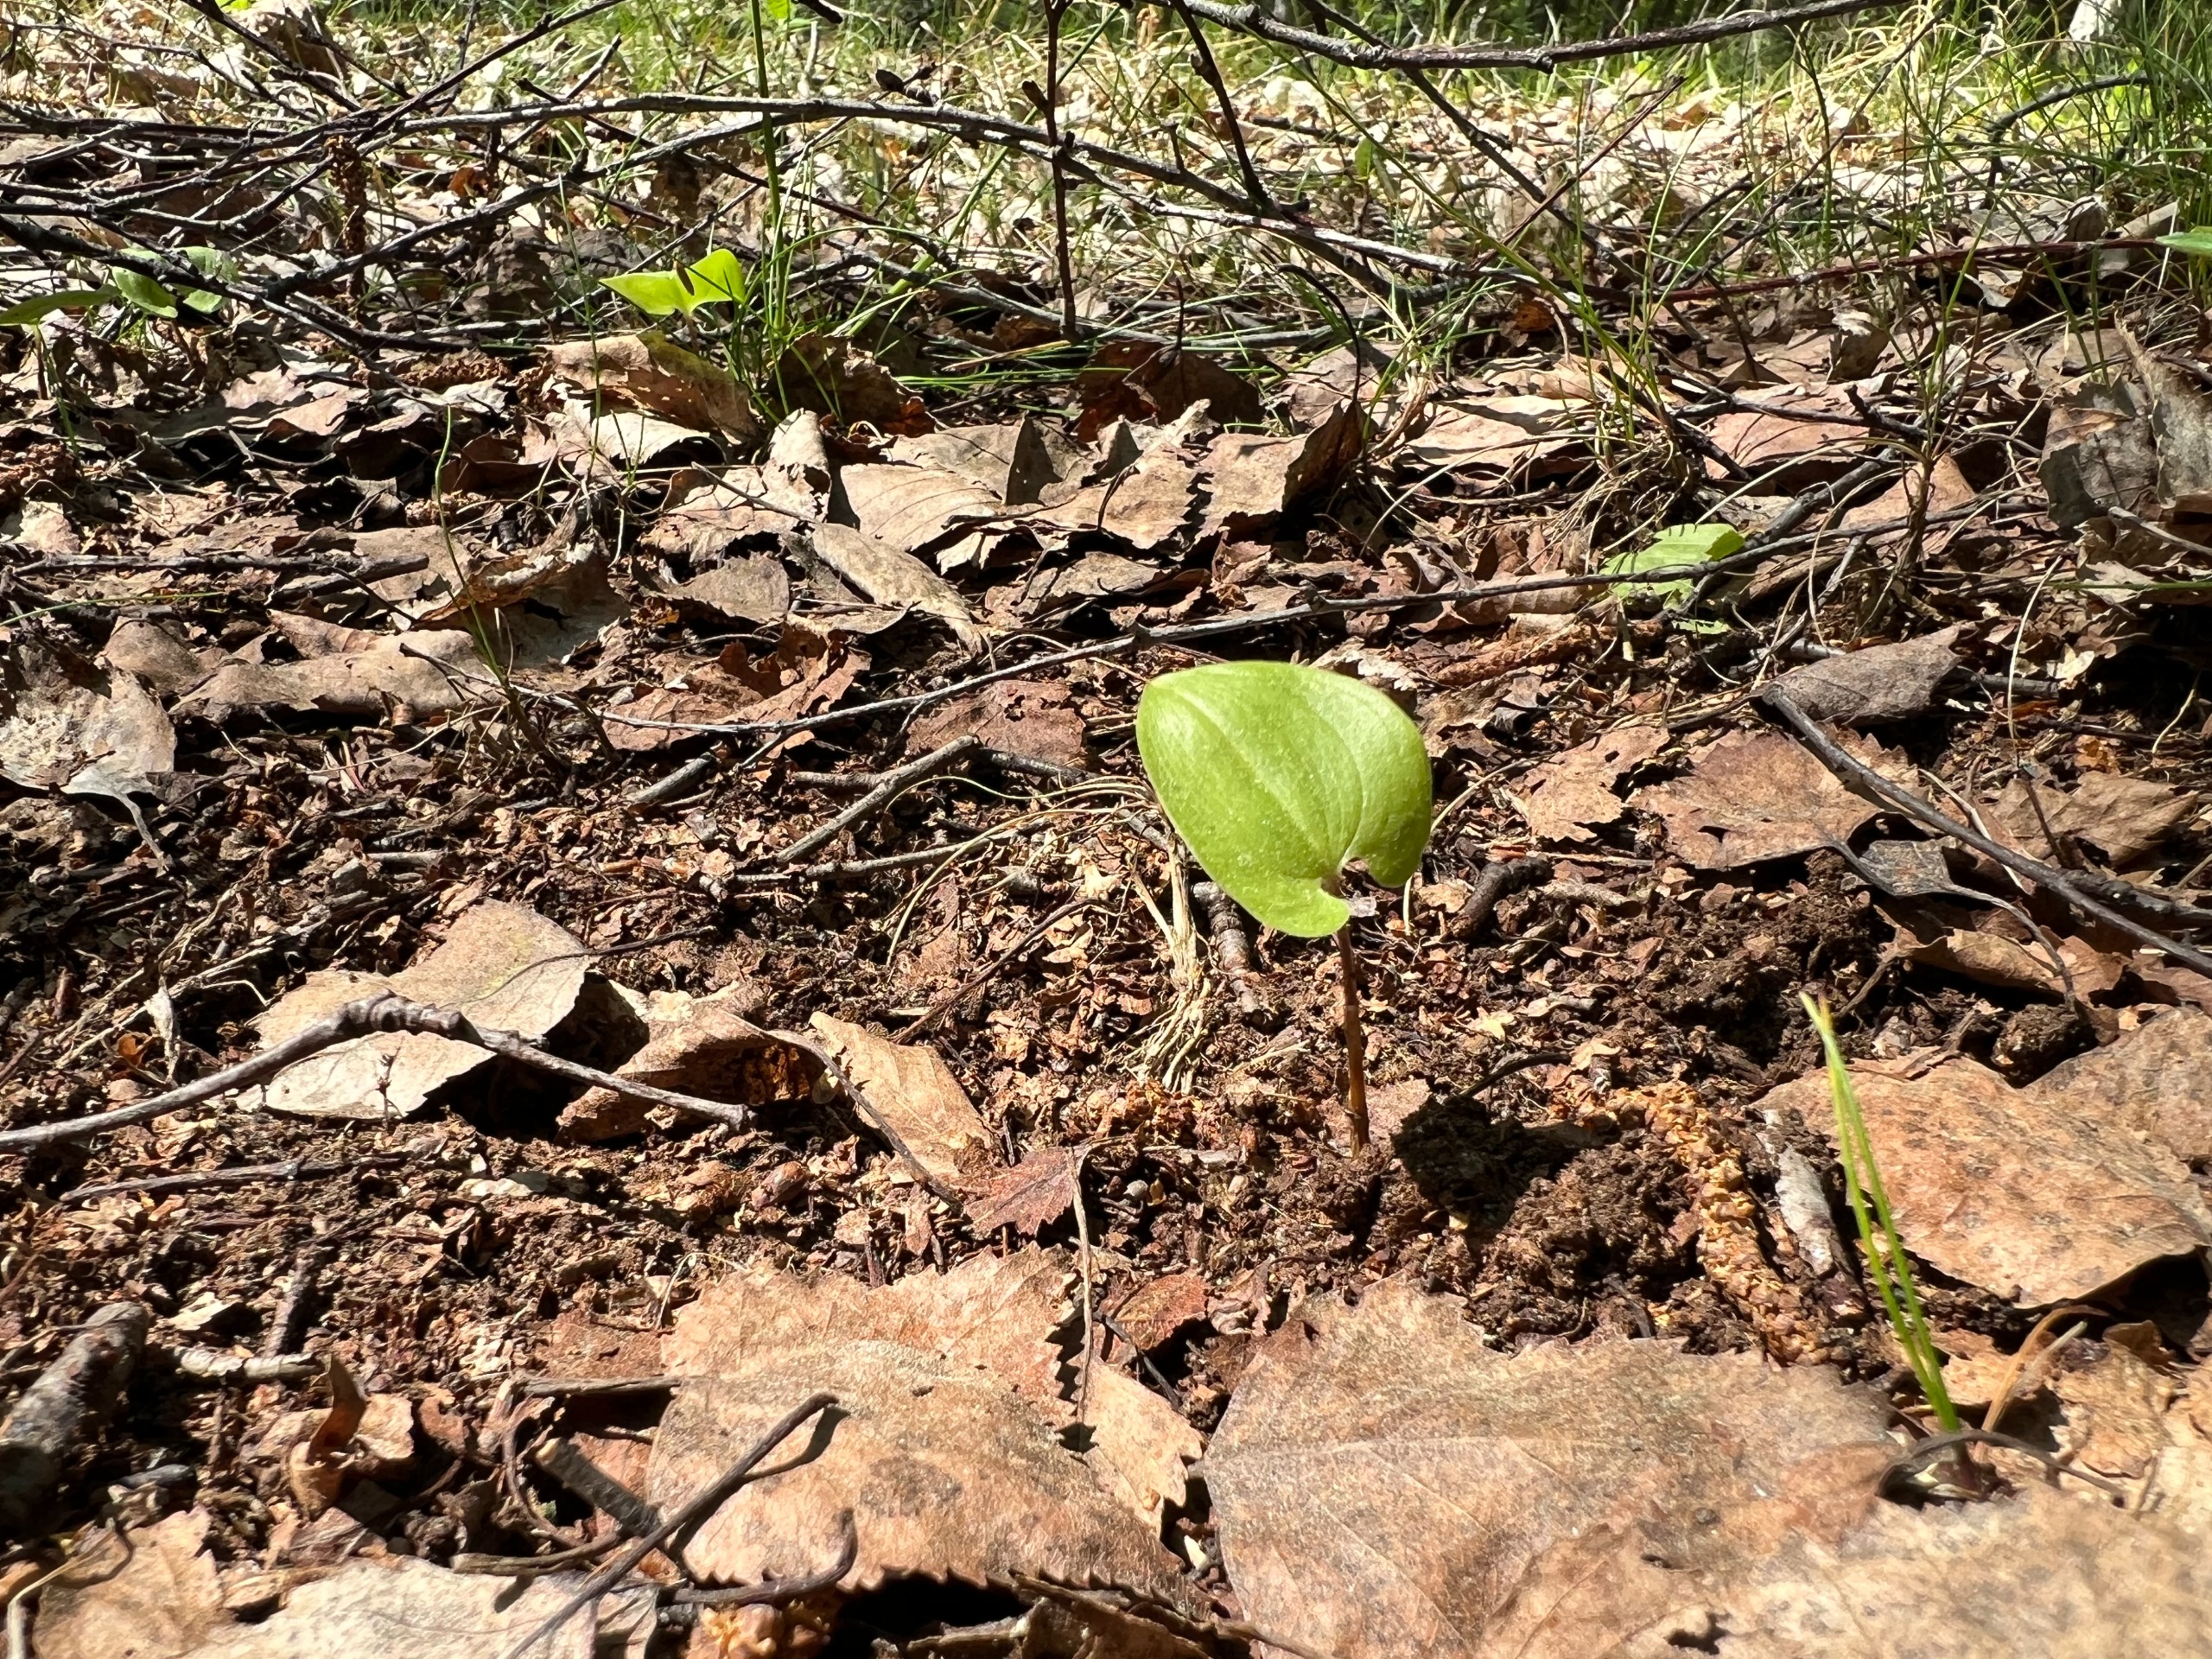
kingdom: Plantae
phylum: Tracheophyta
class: Liliopsida
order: Asparagales
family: Asparagaceae
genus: Maianthemum
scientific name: Maianthemum bifolium
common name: Majblomst
